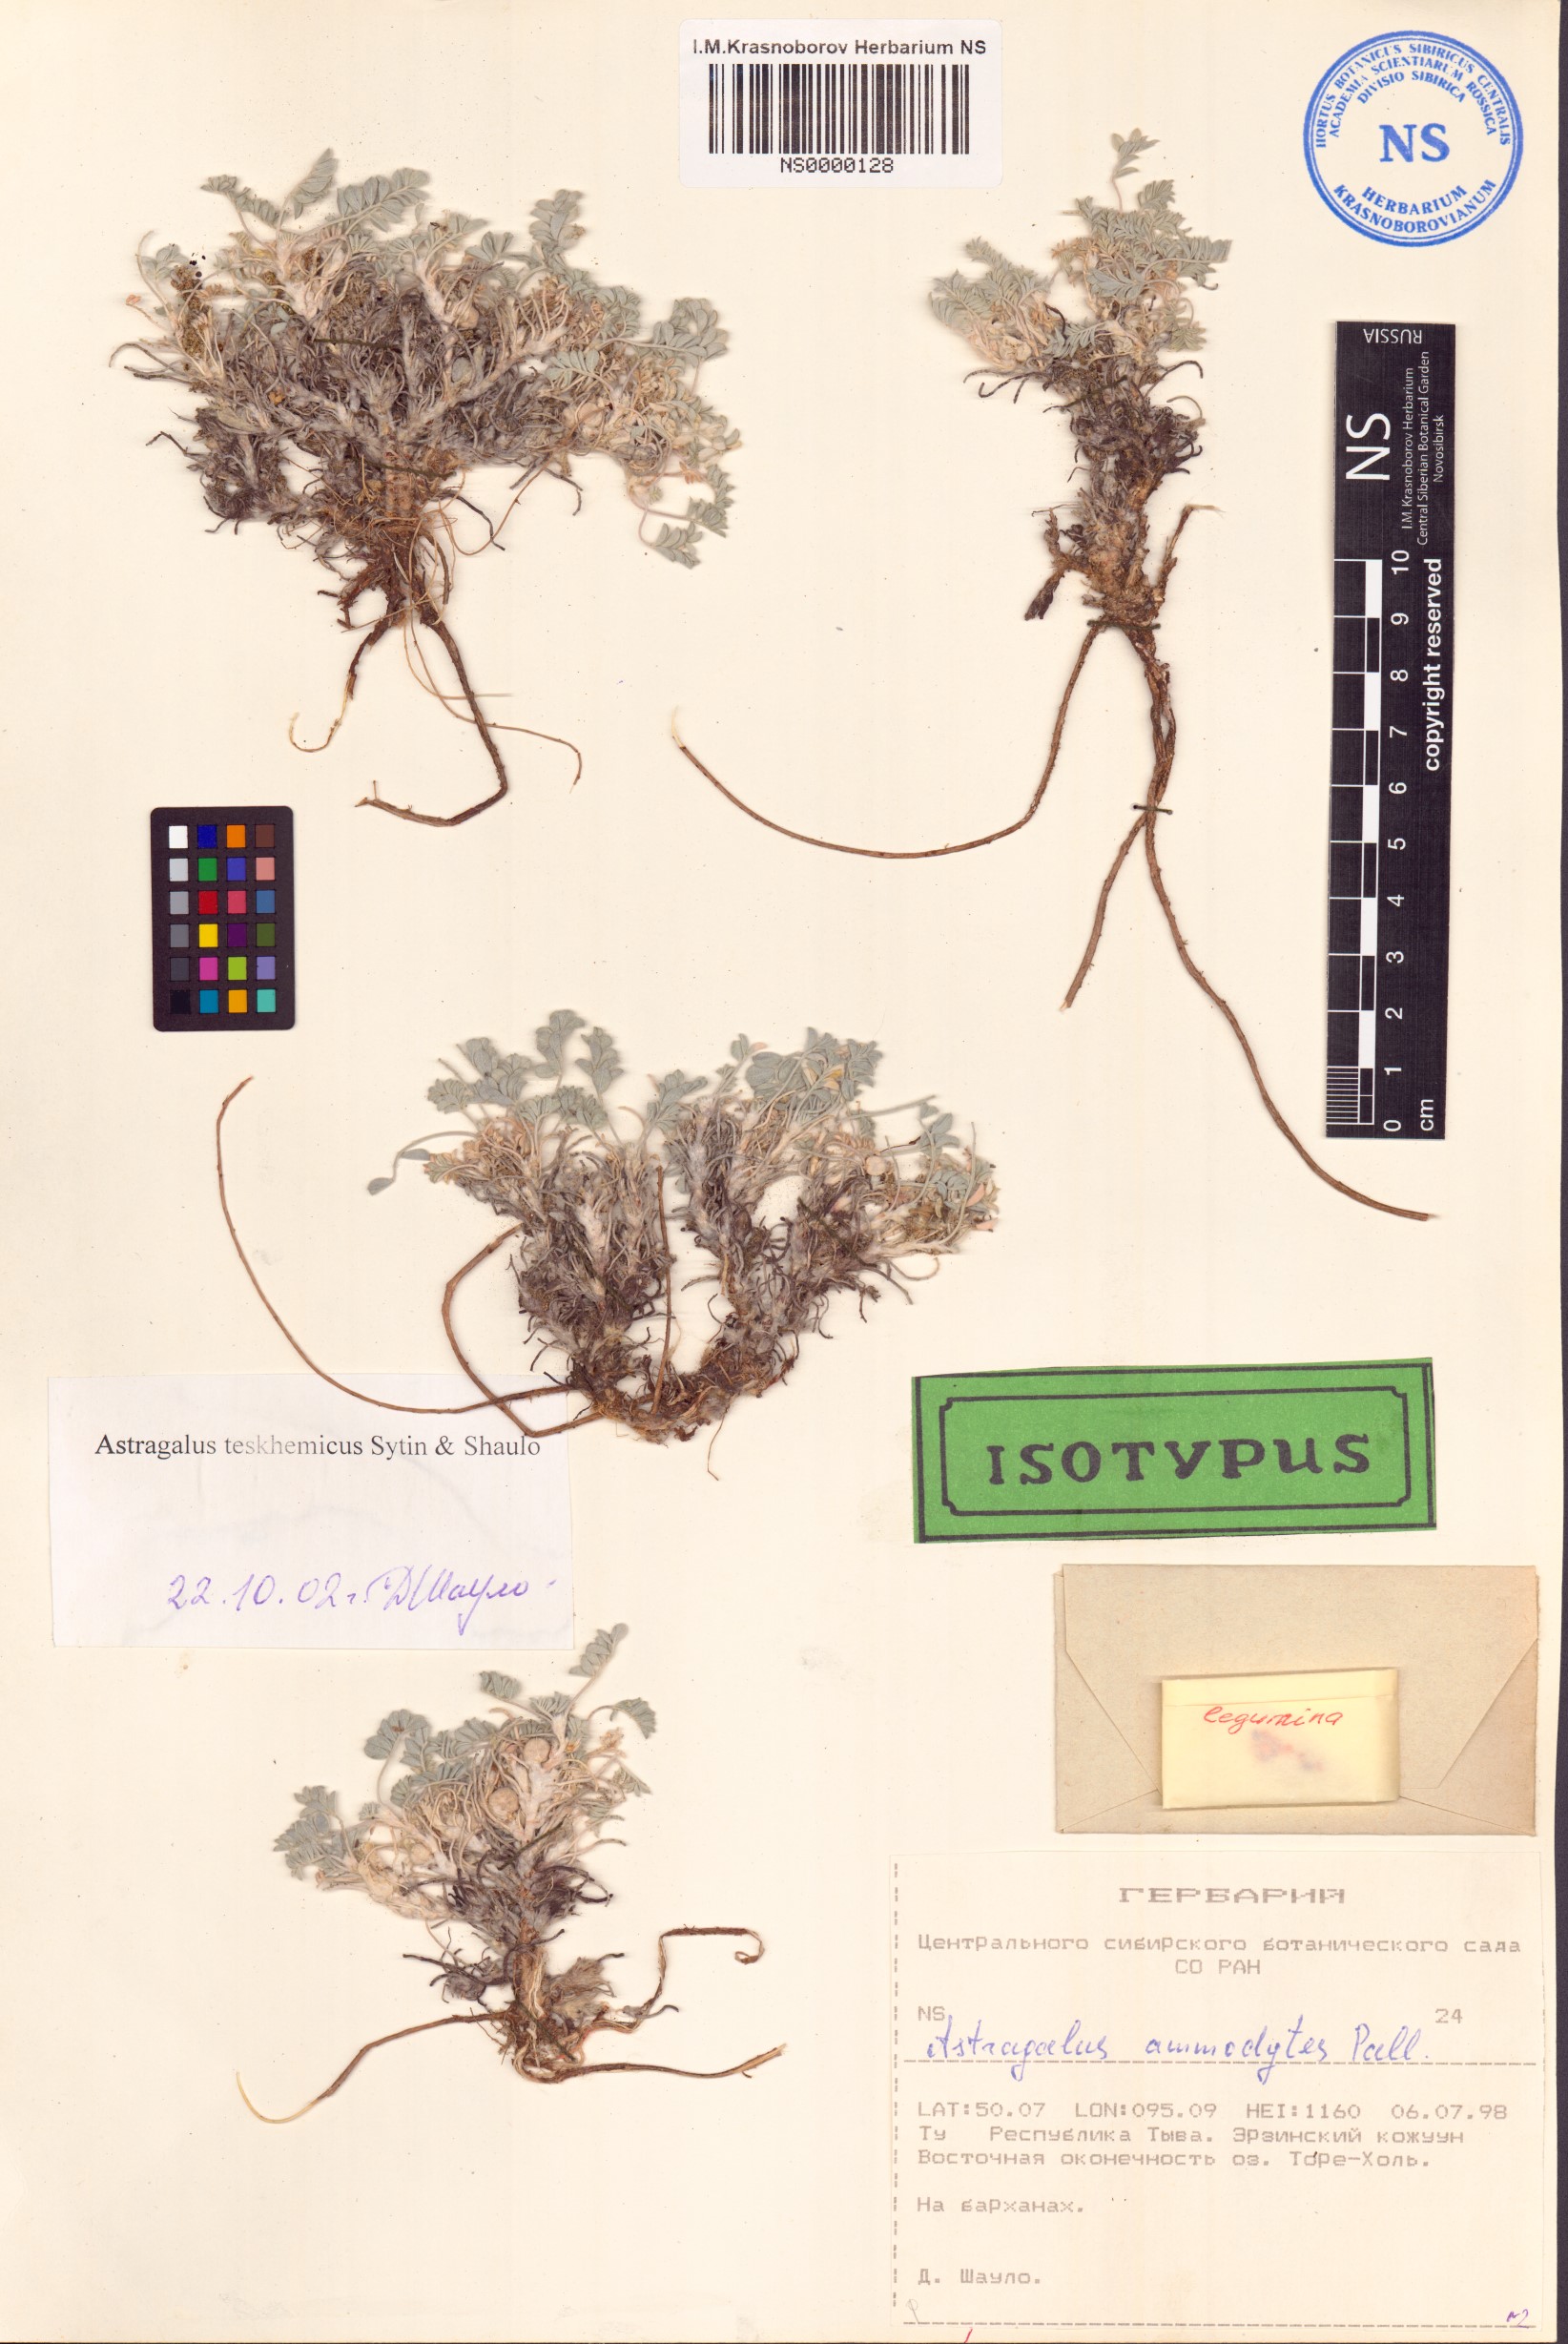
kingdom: Plantae
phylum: Tracheophyta
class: Magnoliopsida
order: Fabales
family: Fabaceae
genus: Astragalus
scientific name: Astragalus teskhemicus
